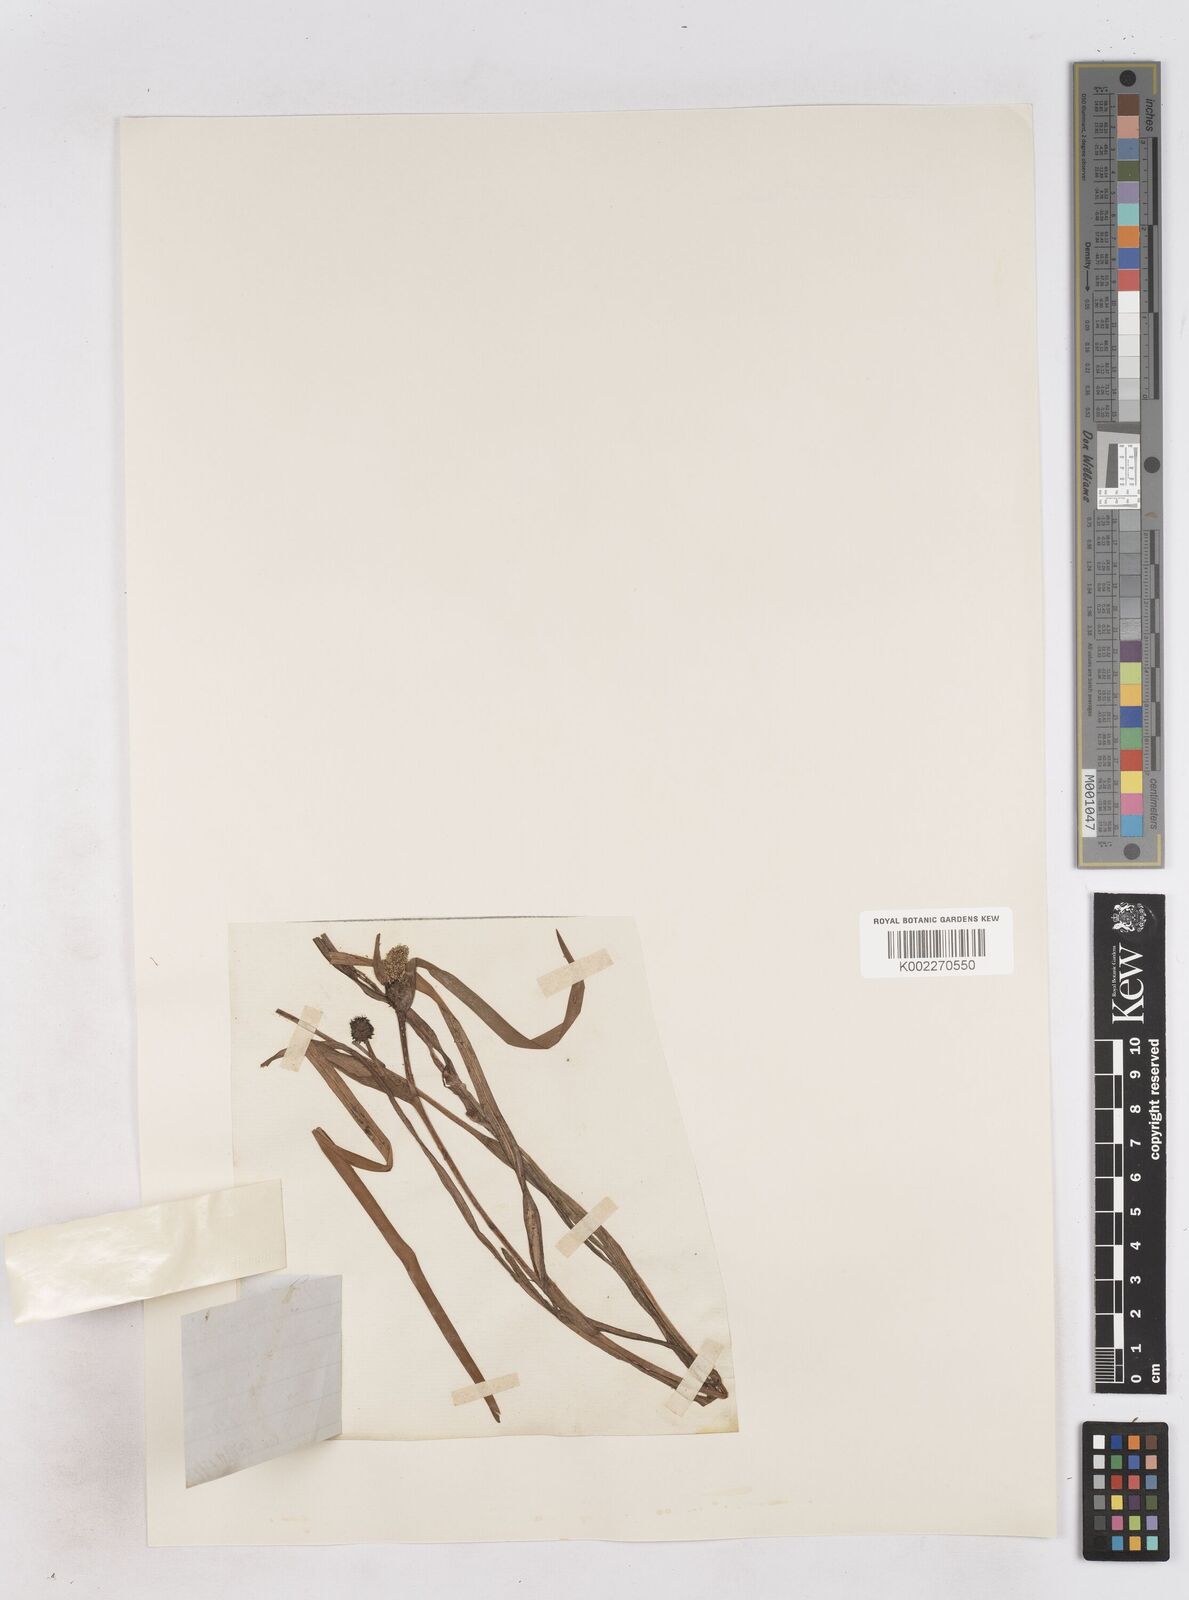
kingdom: Plantae
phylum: Tracheophyta
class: Liliopsida
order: Poales
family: Typhaceae
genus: Sparganium
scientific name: Sparganium angustifolium
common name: Floating bur-reed
